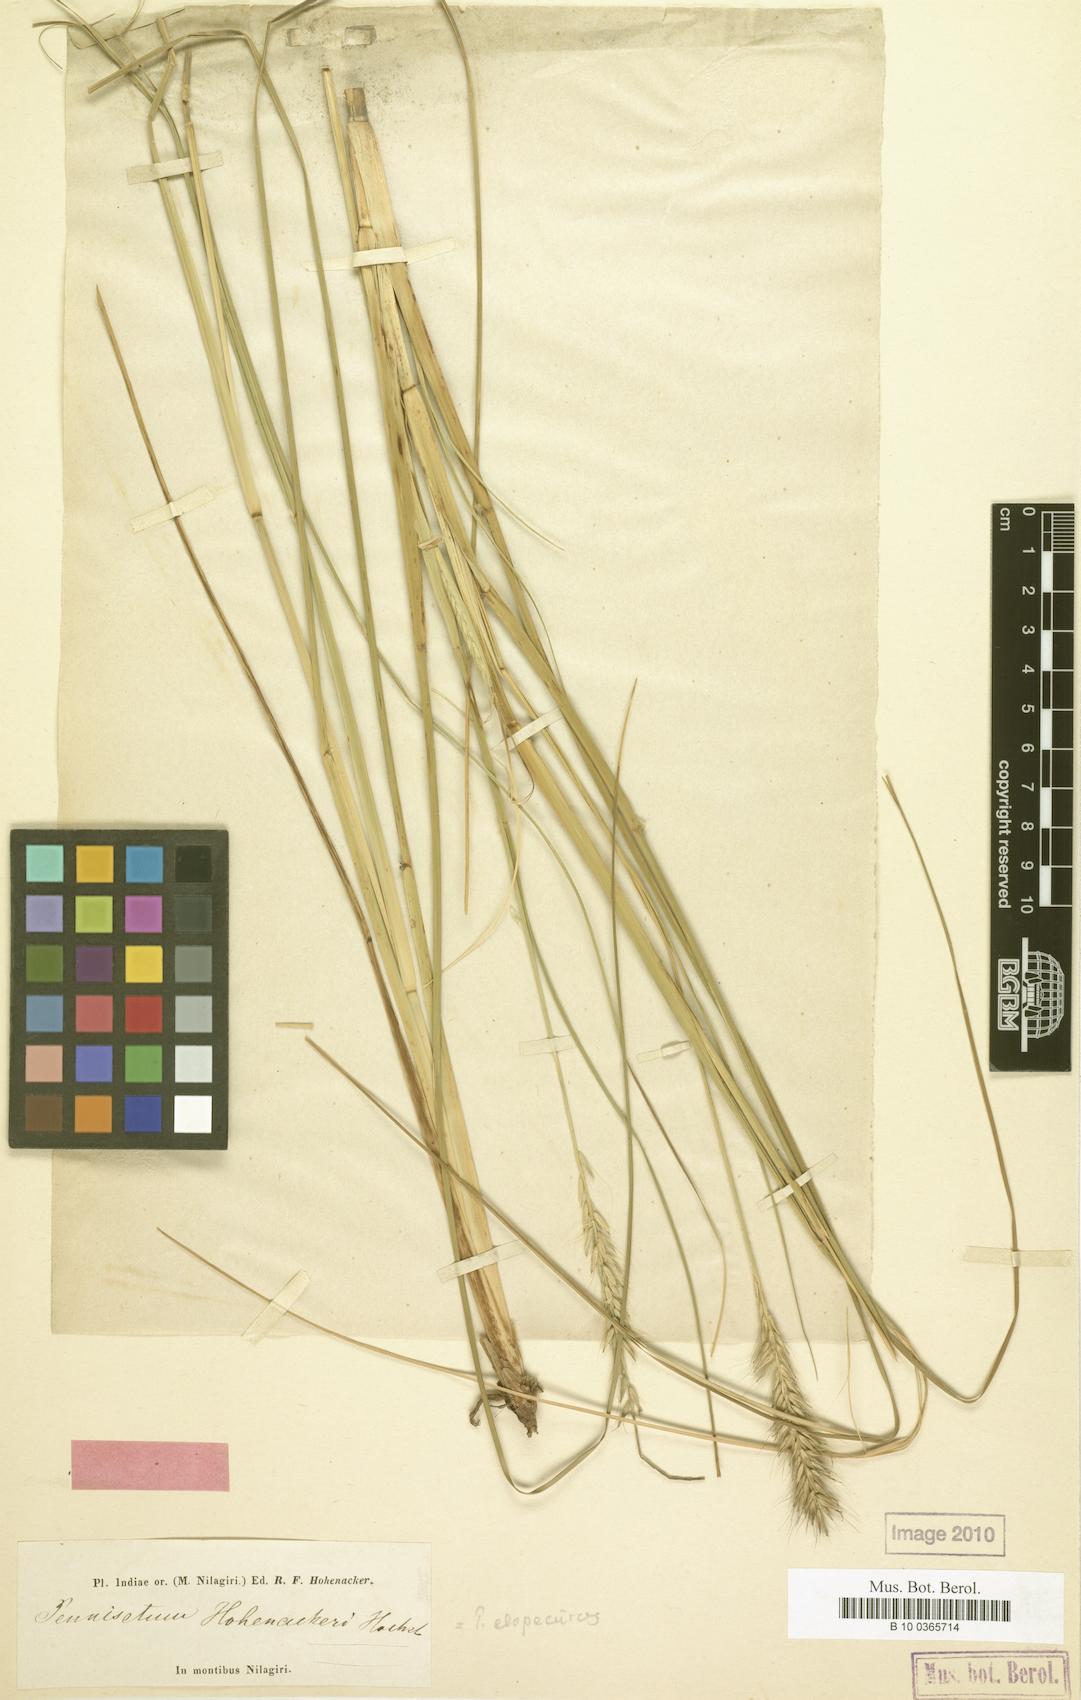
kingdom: Plantae
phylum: Tracheophyta
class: Liliopsida
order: Poales
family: Poaceae
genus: Cenchrus
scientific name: Cenchrus hohenackeri
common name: Moya grass
